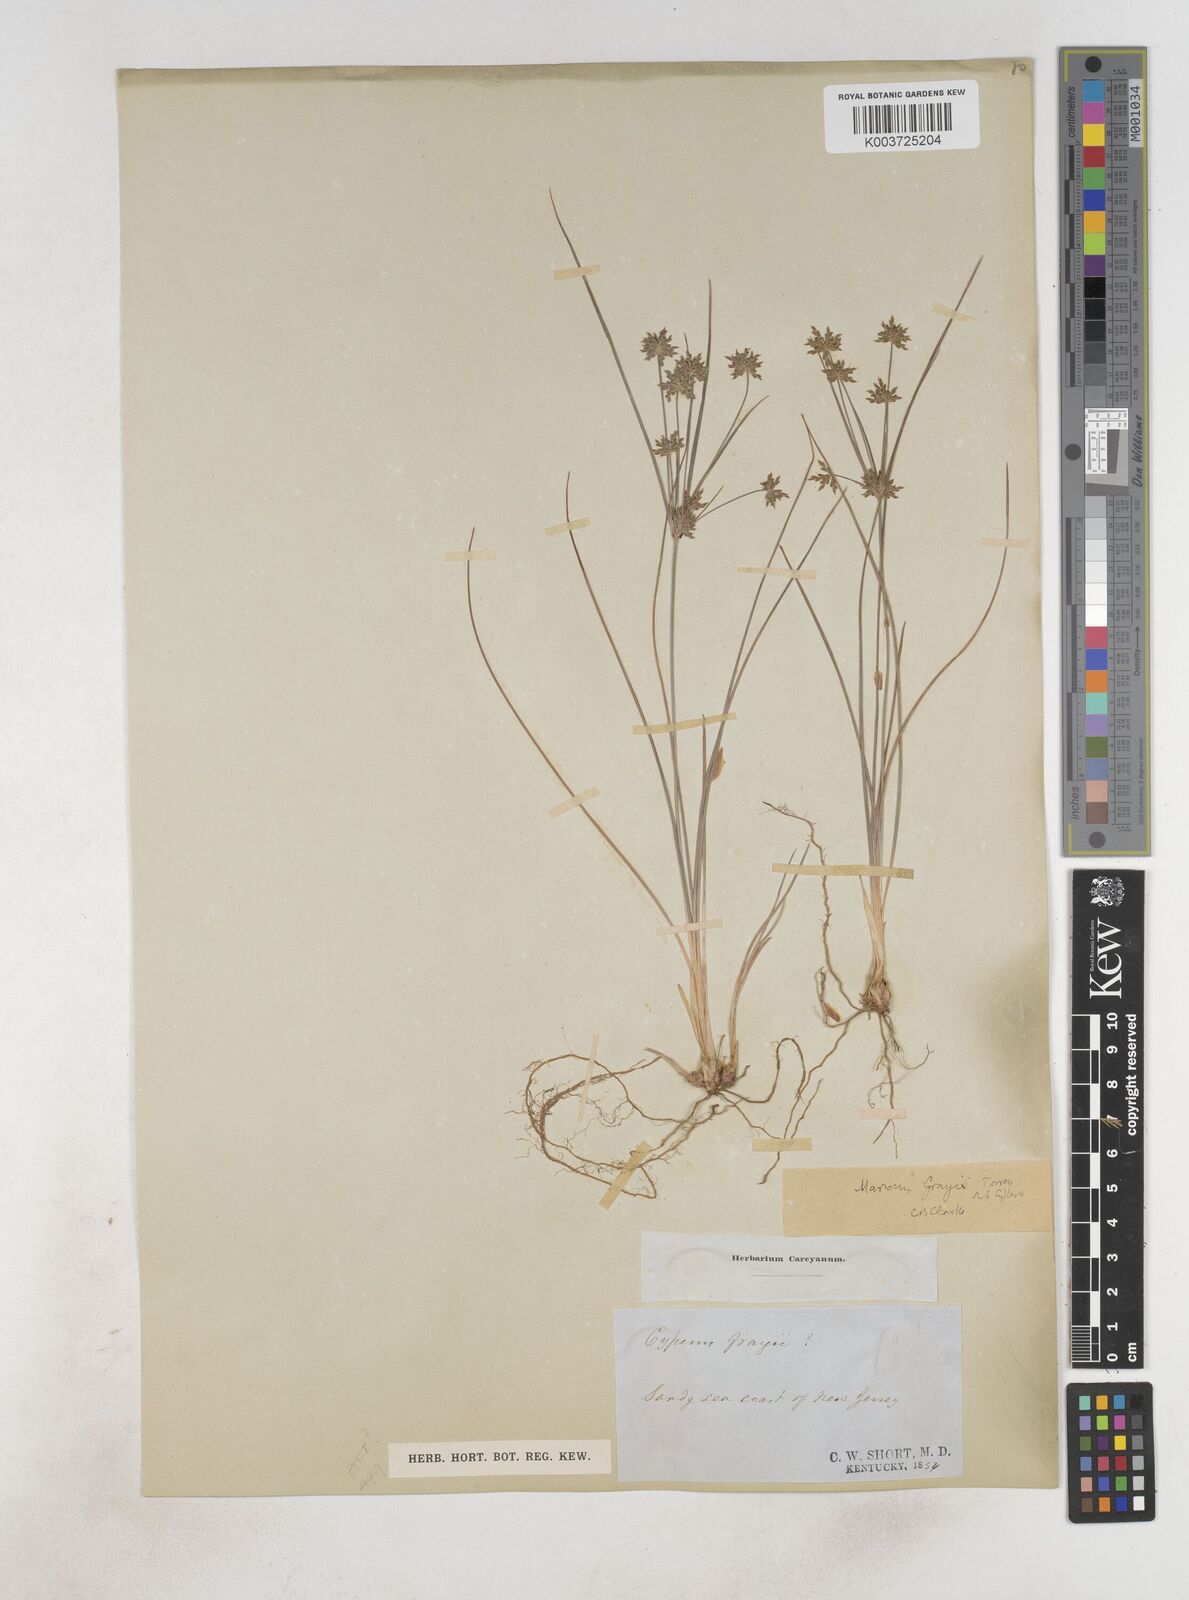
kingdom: Plantae
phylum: Tracheophyta
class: Liliopsida
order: Poales
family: Cyperaceae
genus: Cyperus
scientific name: Cyperus grayi
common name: Gray's flat sedge
